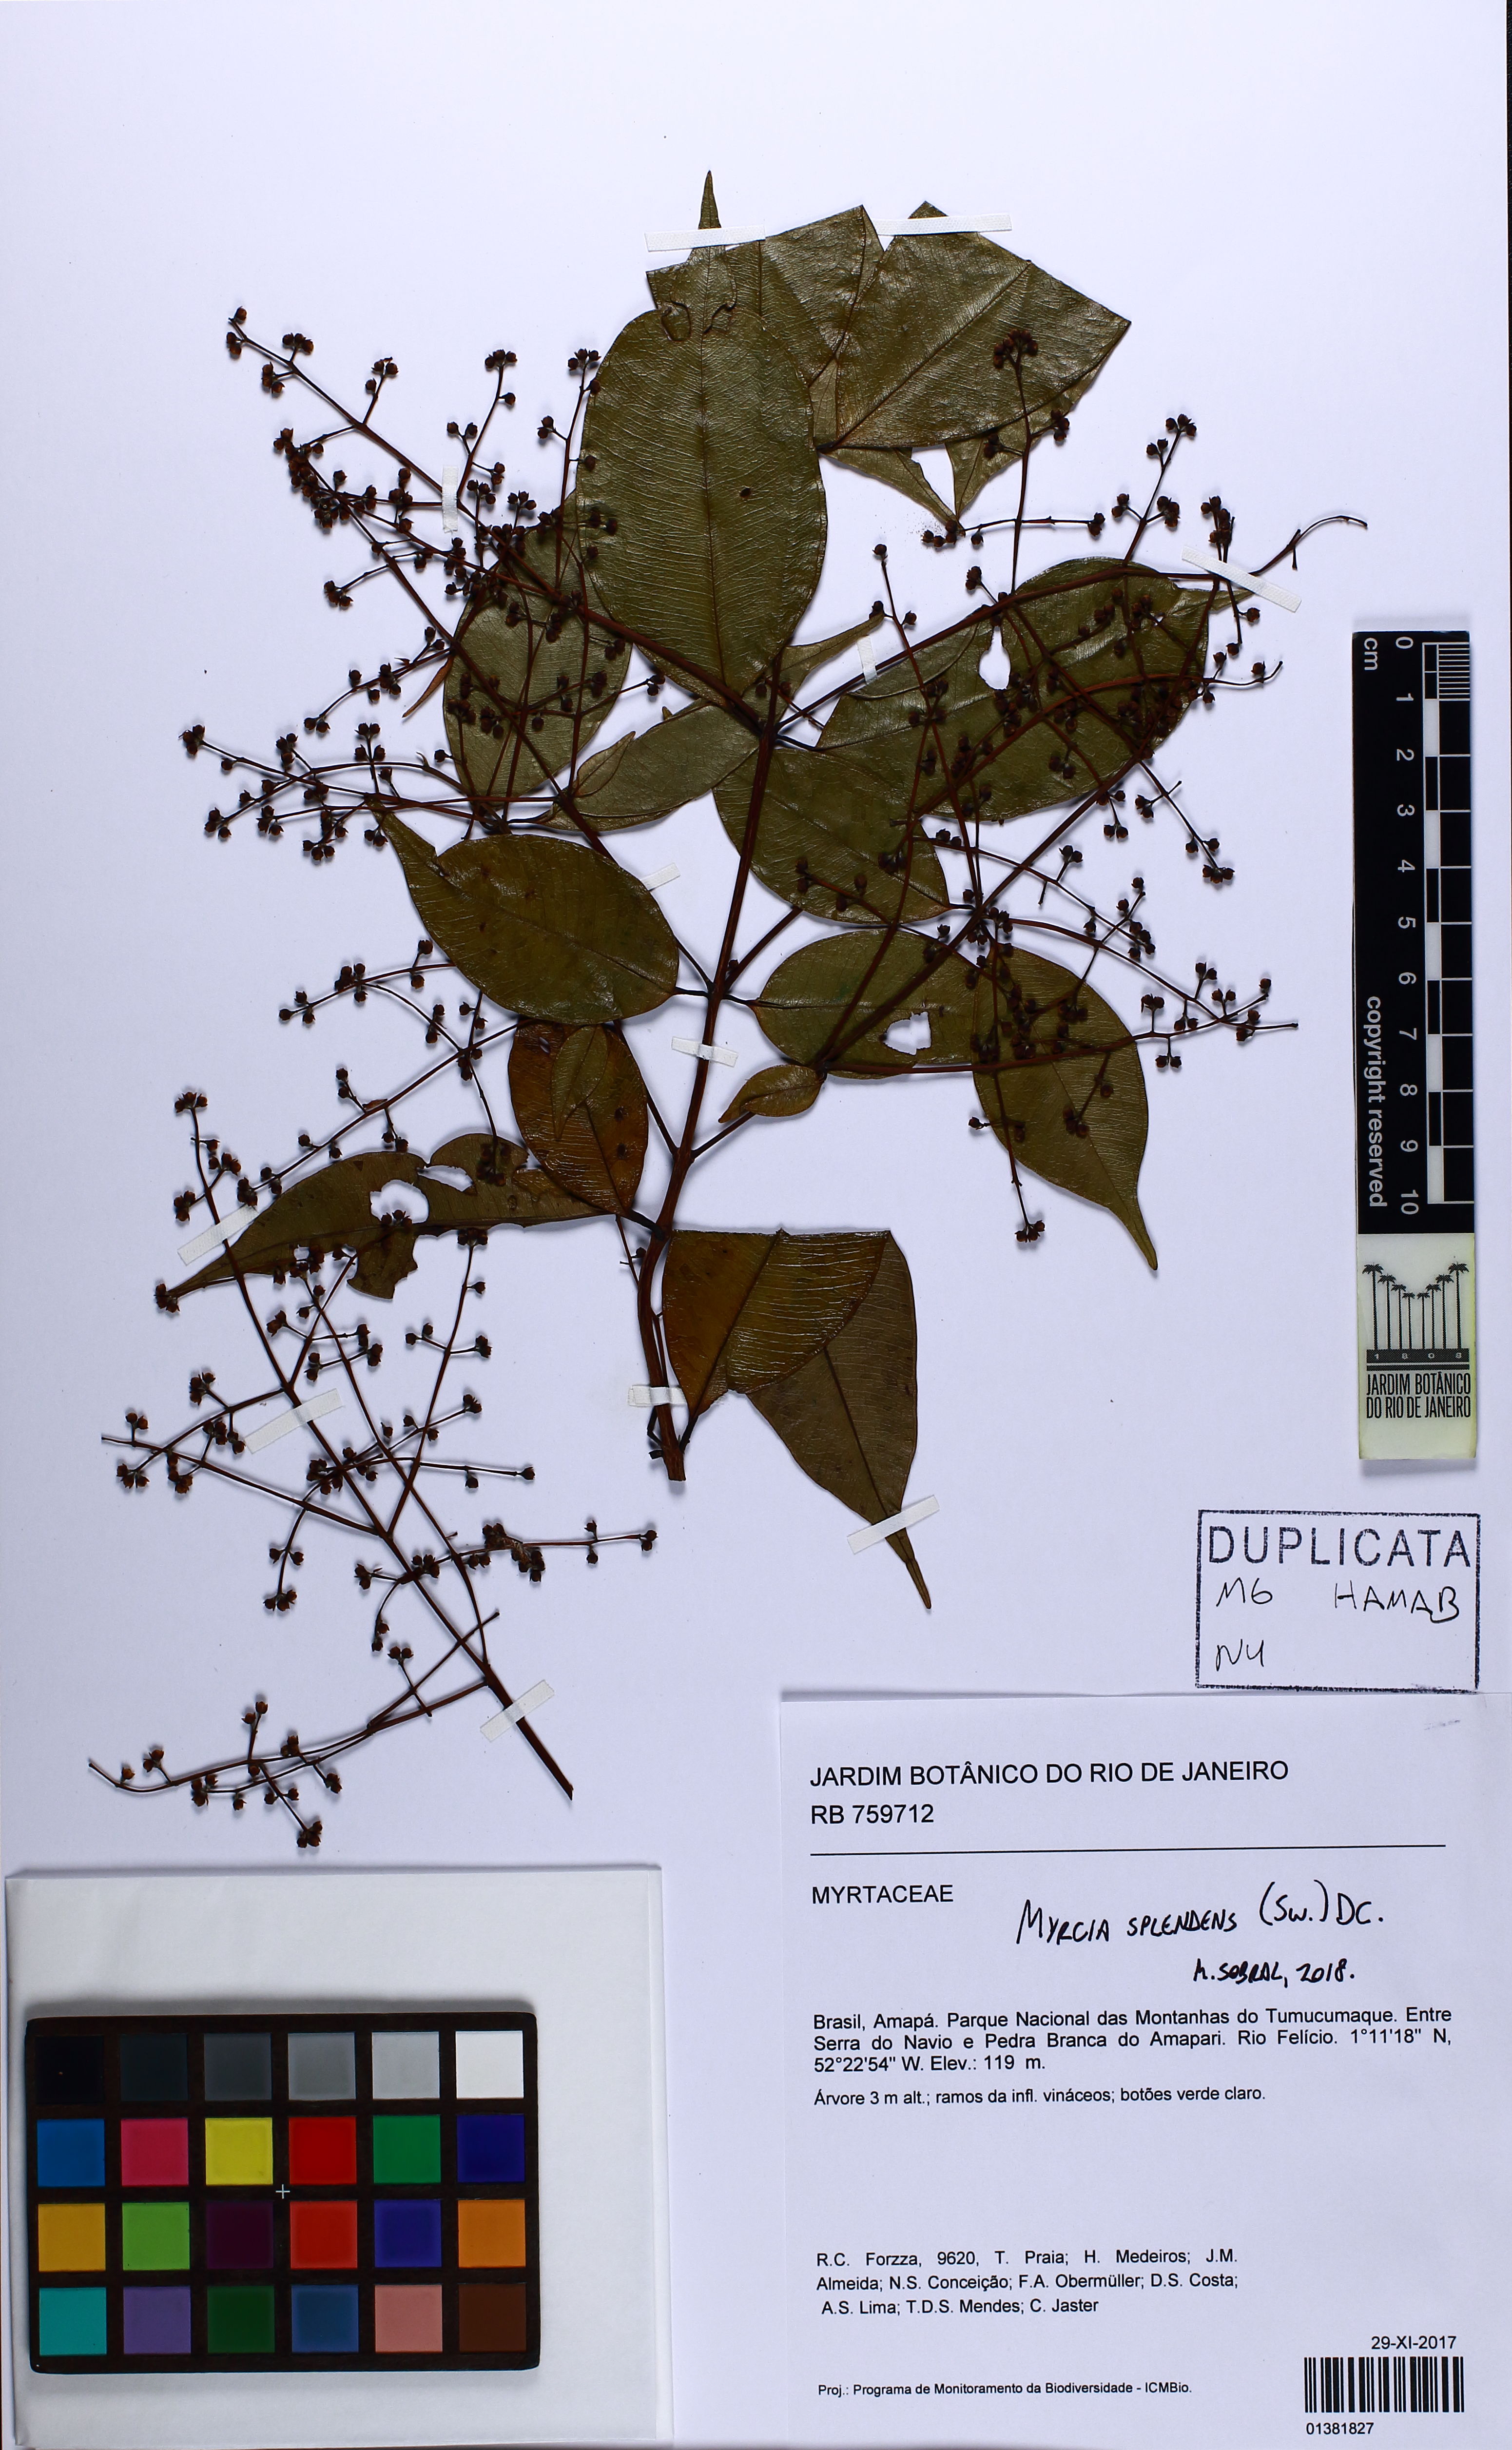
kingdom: Plantae
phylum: Tracheophyta
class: Magnoliopsida
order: Myrtales
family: Myrtaceae
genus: Myrcia
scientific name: Myrcia splendens
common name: Surinam cherry
